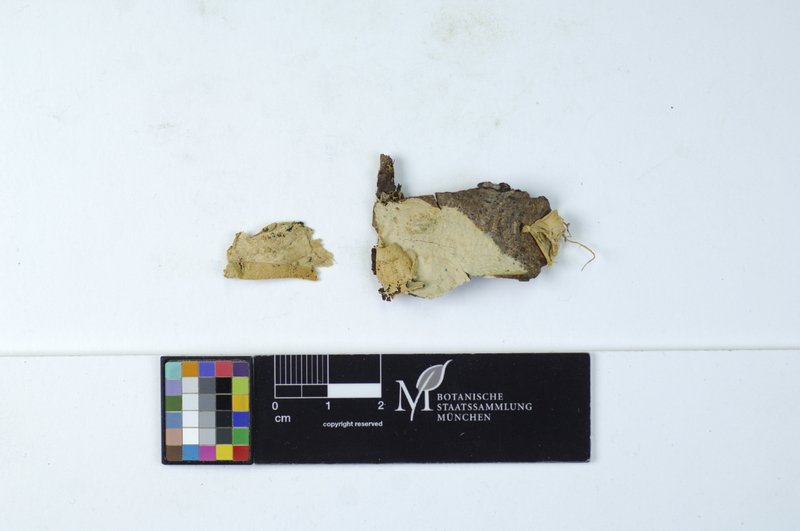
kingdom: Plantae
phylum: Tracheophyta
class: Pinopsida
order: Pinales
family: Pinaceae
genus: Picea
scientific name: Picea
